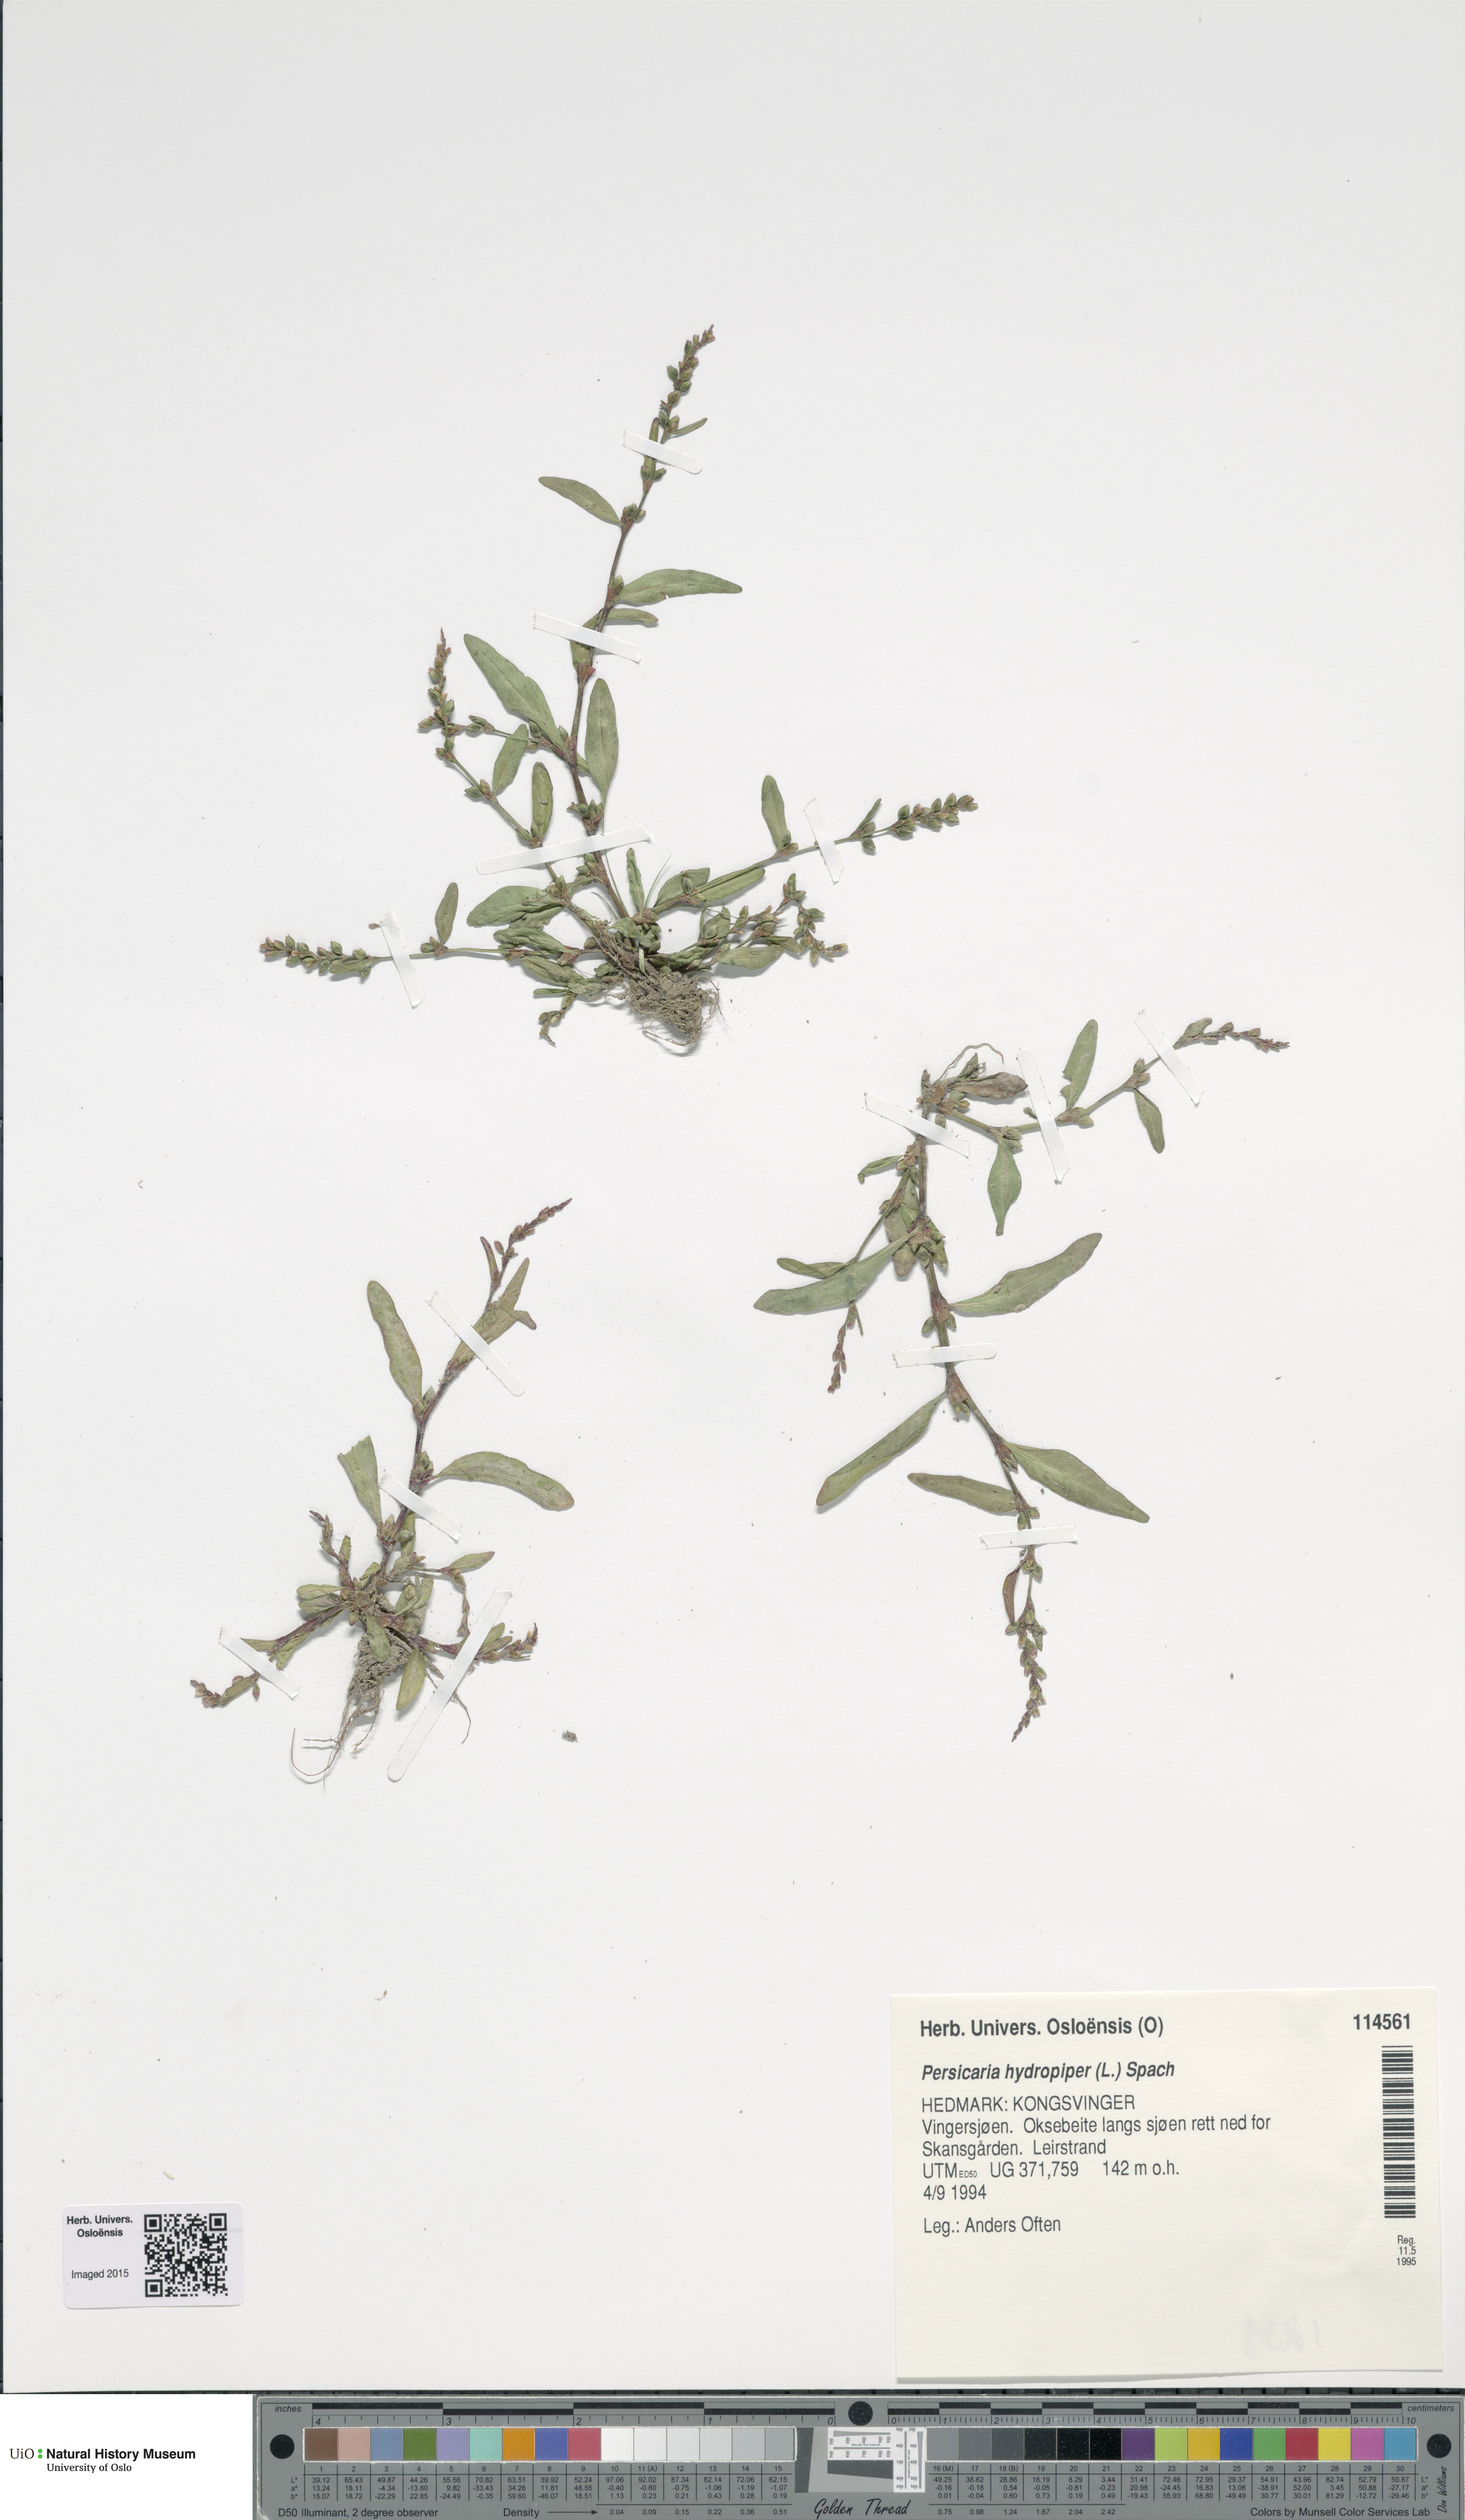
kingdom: Plantae
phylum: Tracheophyta
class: Magnoliopsida
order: Caryophyllales
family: Polygonaceae
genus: Persicaria
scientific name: Persicaria hydropiper
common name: Water-pepper
